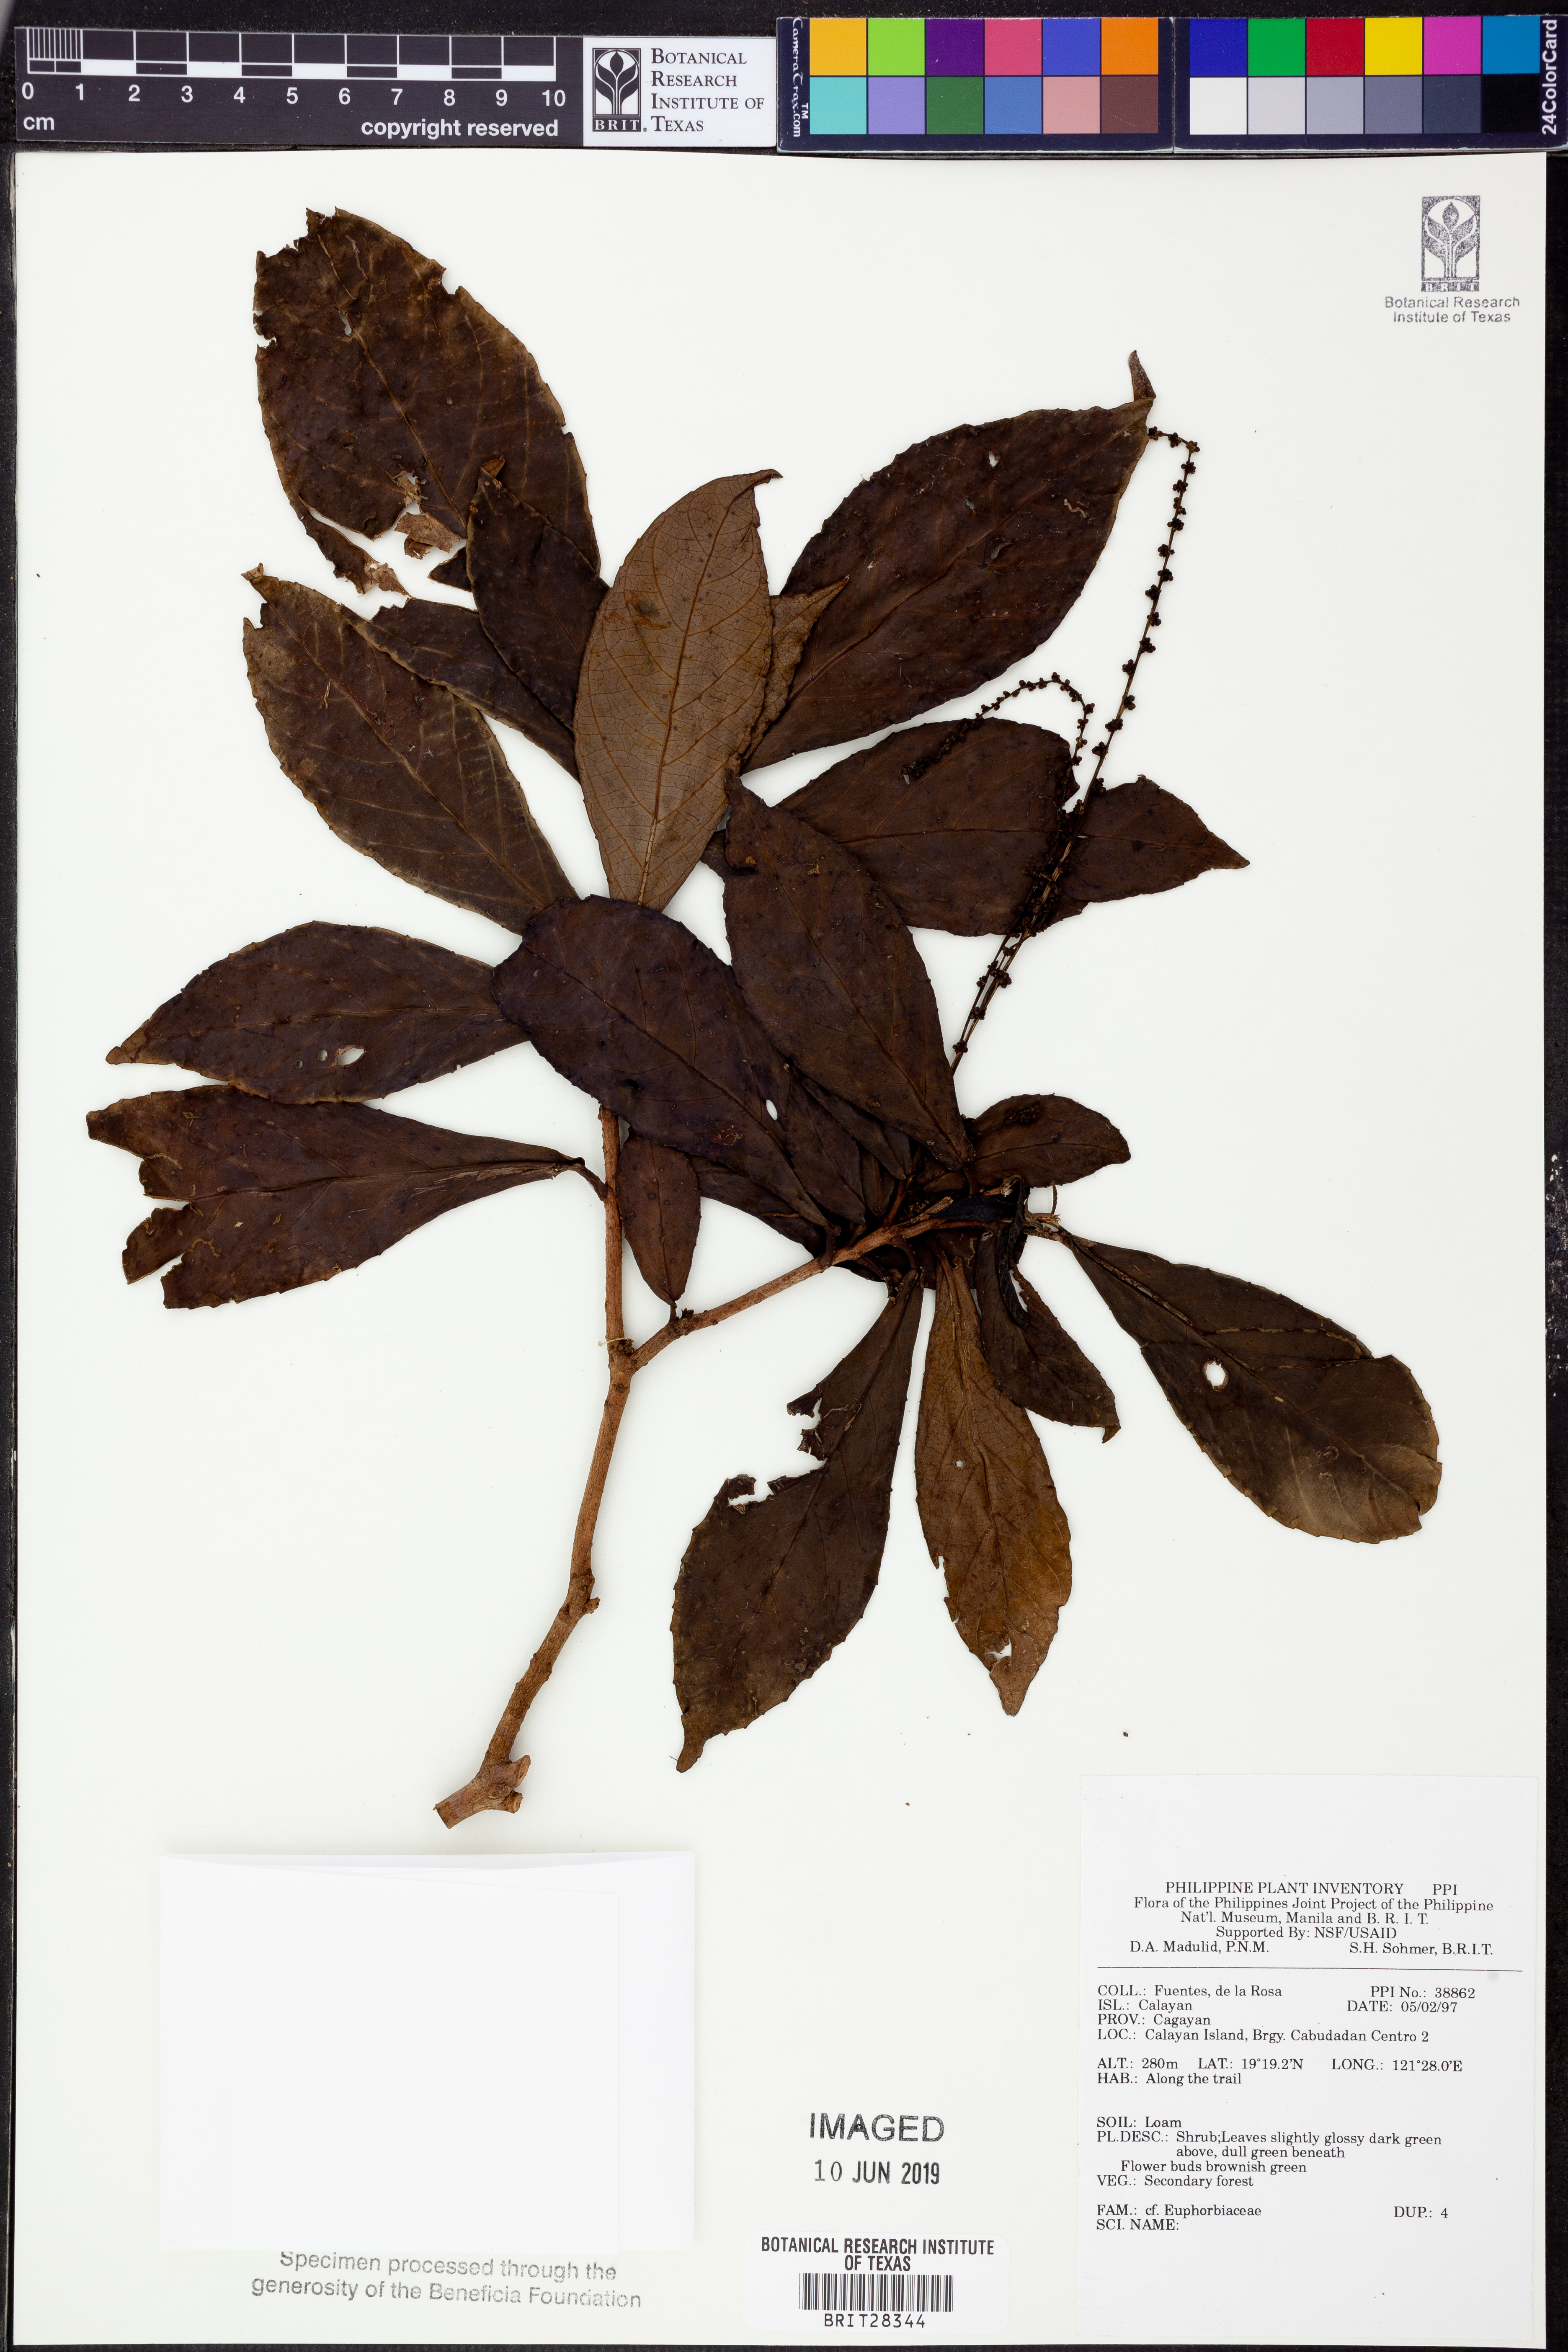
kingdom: Plantae
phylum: Tracheophyta
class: Magnoliopsida
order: Malpighiales
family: Euphorbiaceae
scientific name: Euphorbiaceae
